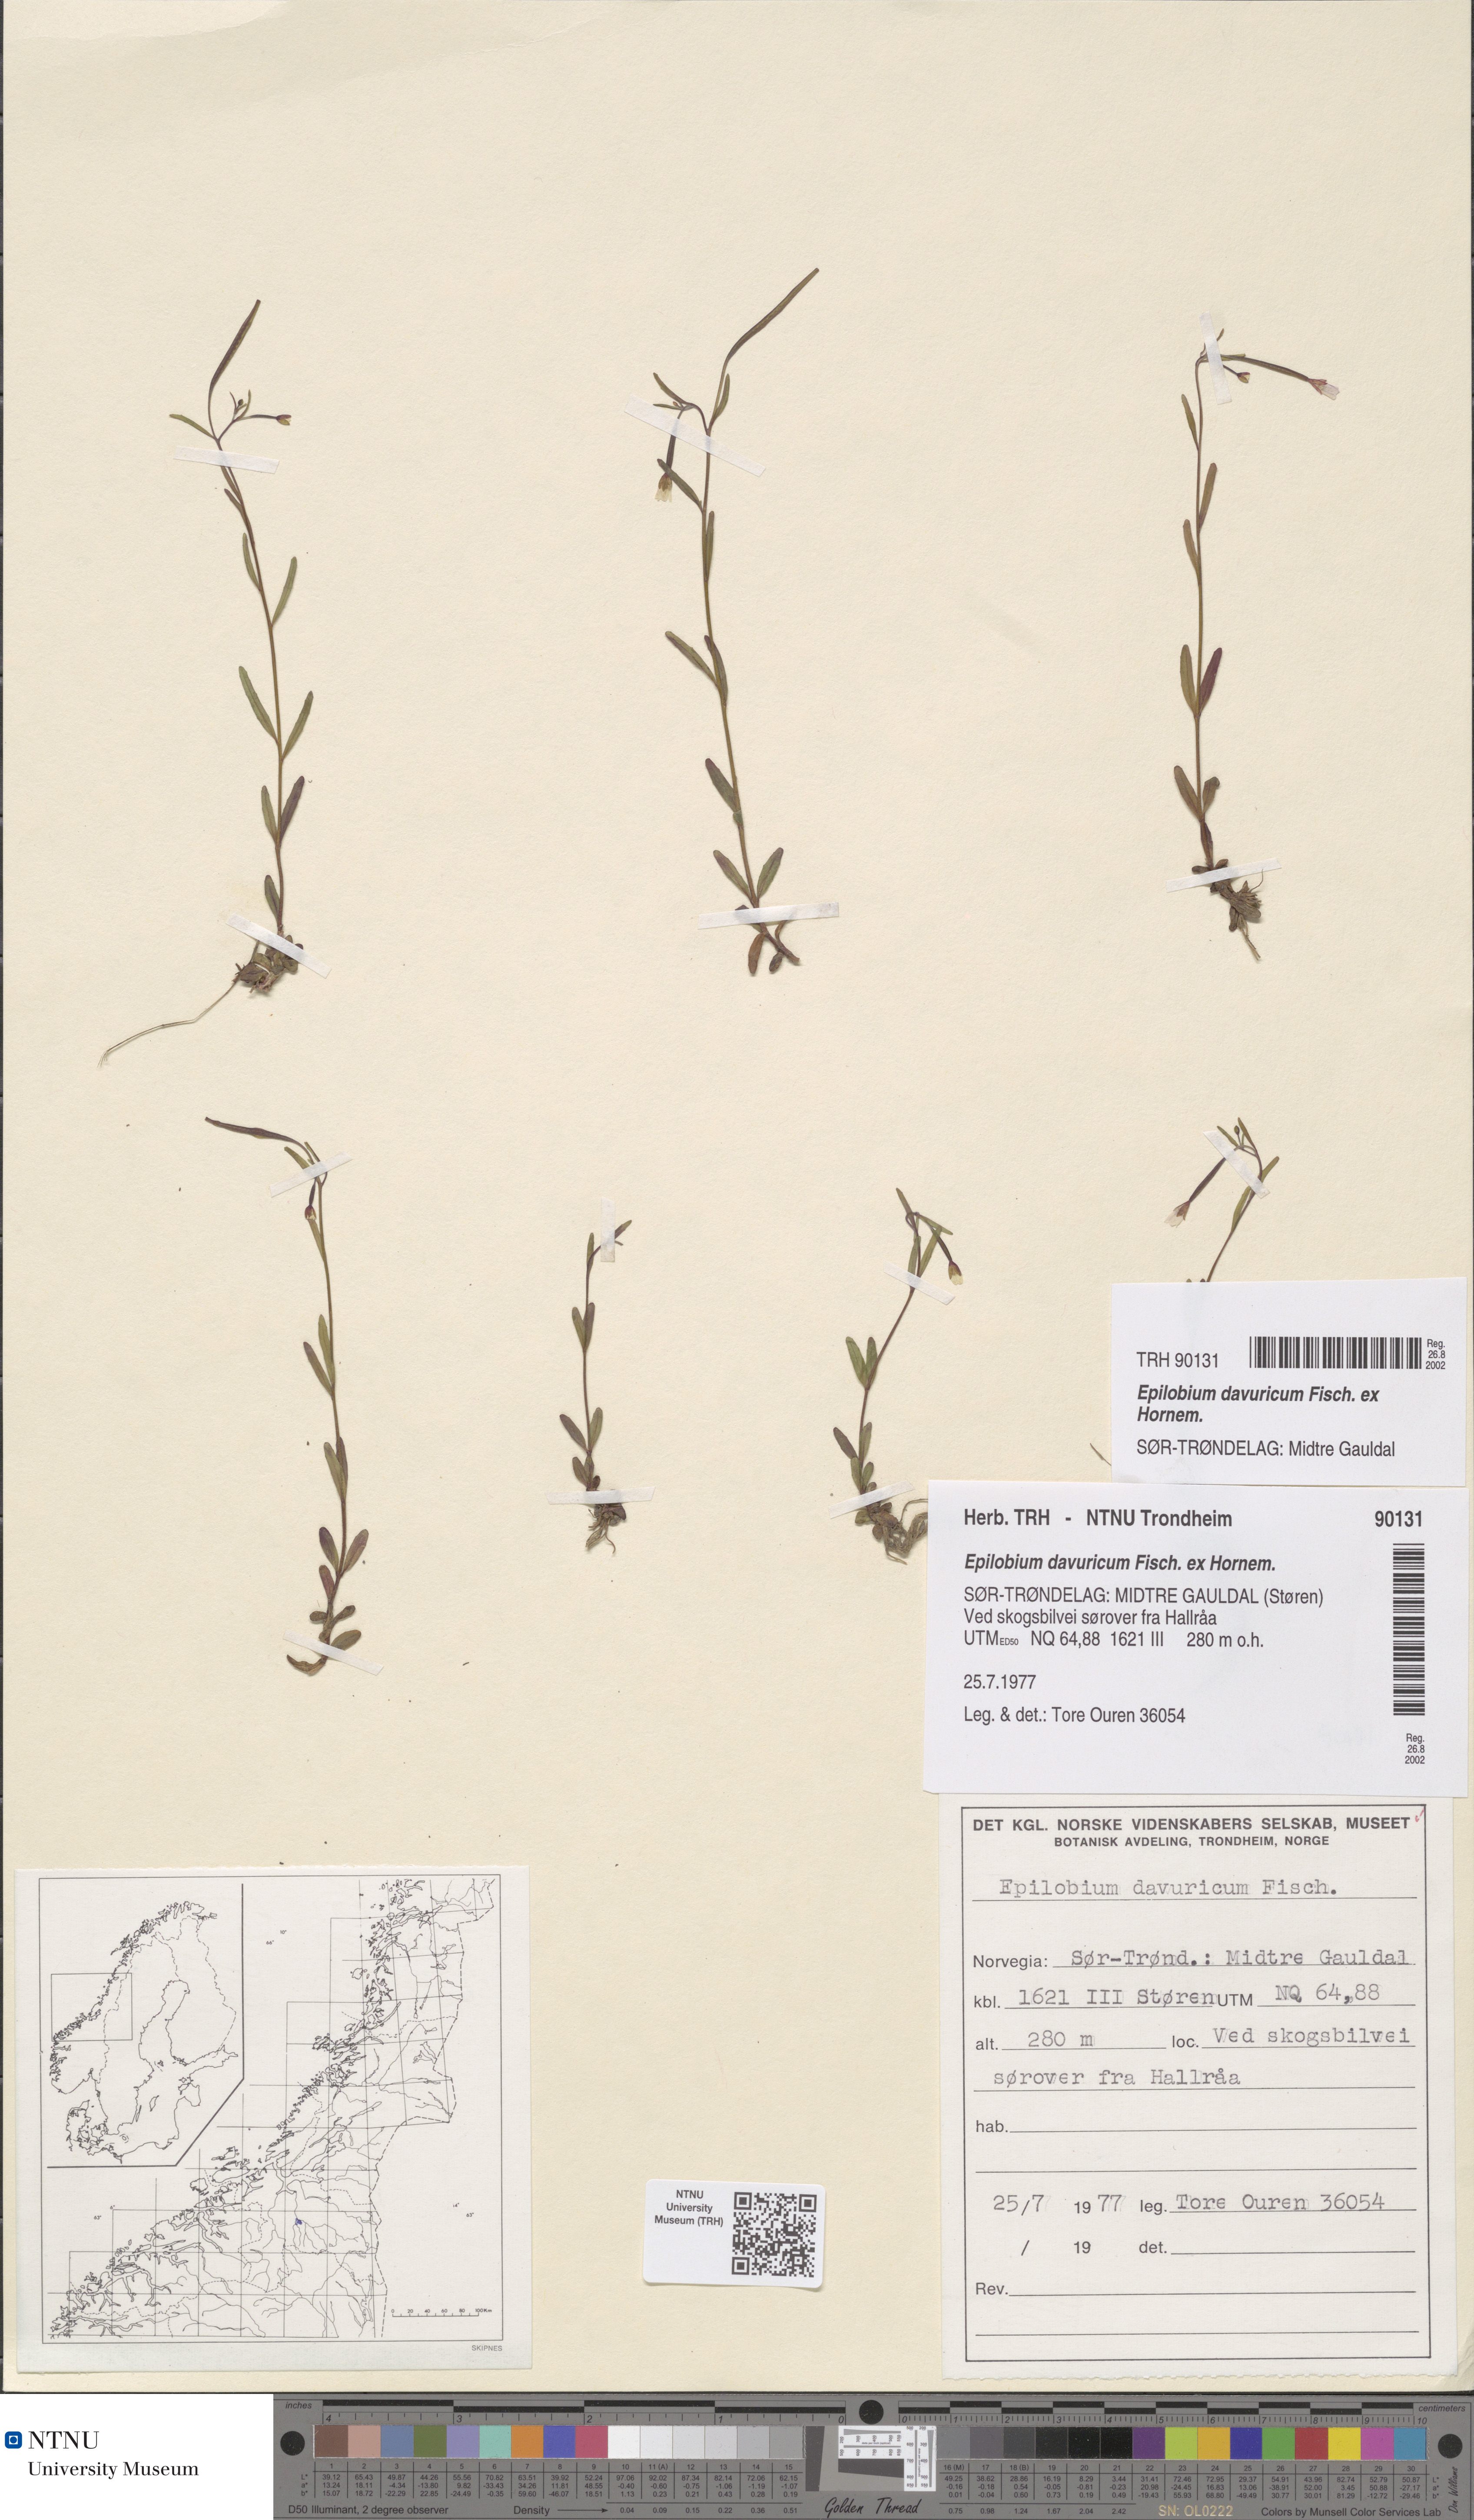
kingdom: Plantae
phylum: Tracheophyta
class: Magnoliopsida
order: Myrtales
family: Onagraceae
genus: Epilobium
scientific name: Epilobium davuricum
